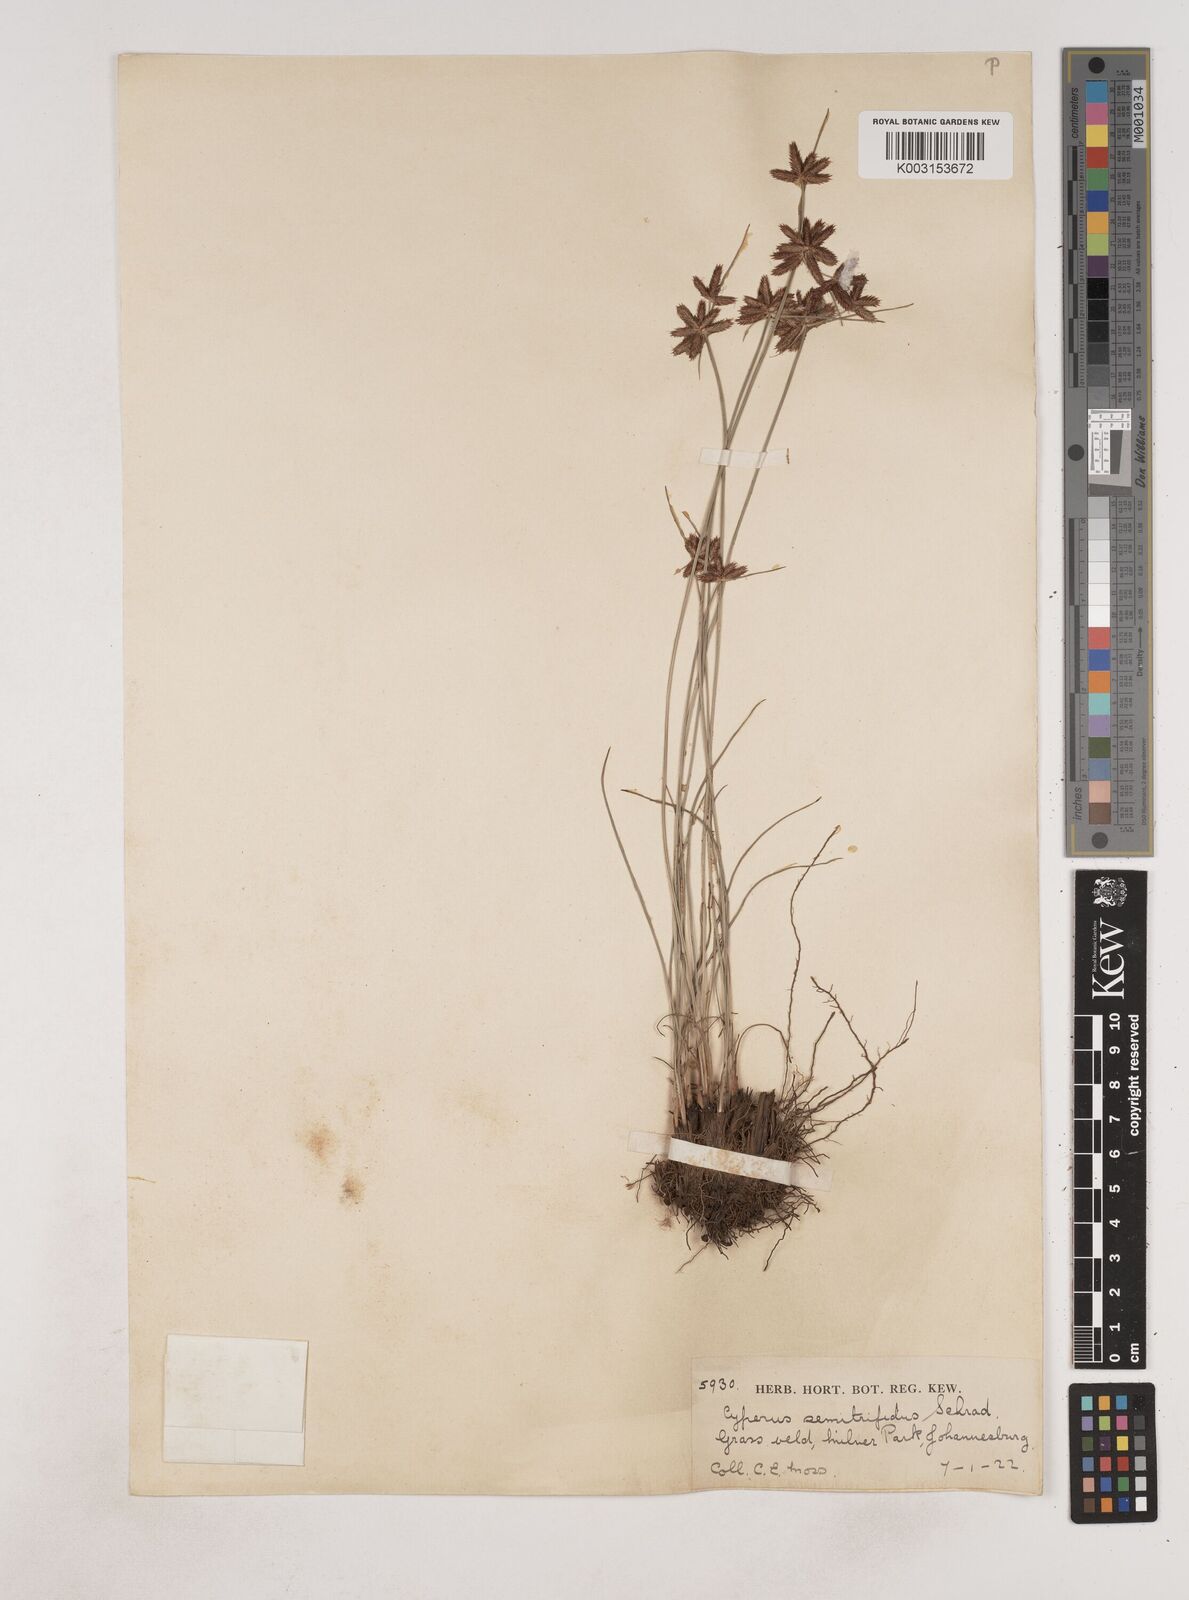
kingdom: Plantae
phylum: Tracheophyta
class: Liliopsida
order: Poales
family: Cyperaceae
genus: Cyperus
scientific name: Cyperus semitrifidus
